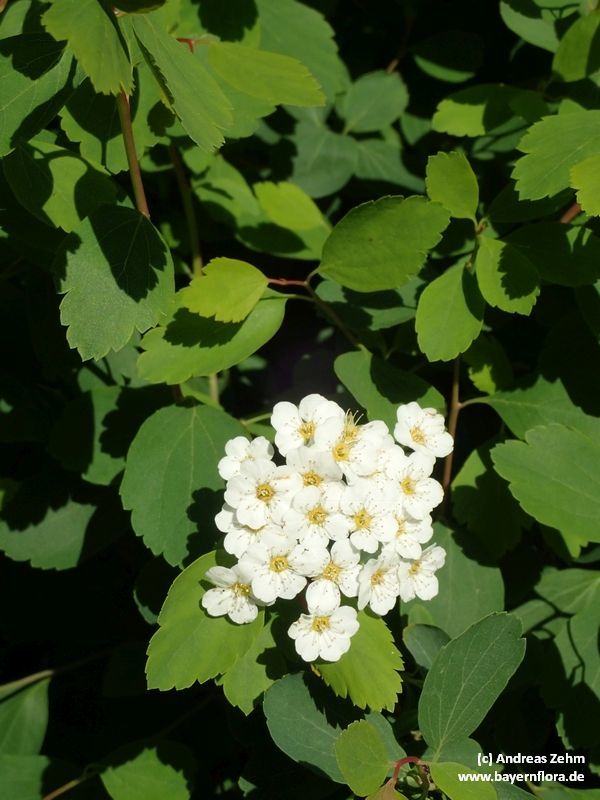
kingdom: Plantae
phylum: Tracheophyta
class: Magnoliopsida
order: Rosales
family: Rosaceae
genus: Spiraea
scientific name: Spiraea vanhouttei
